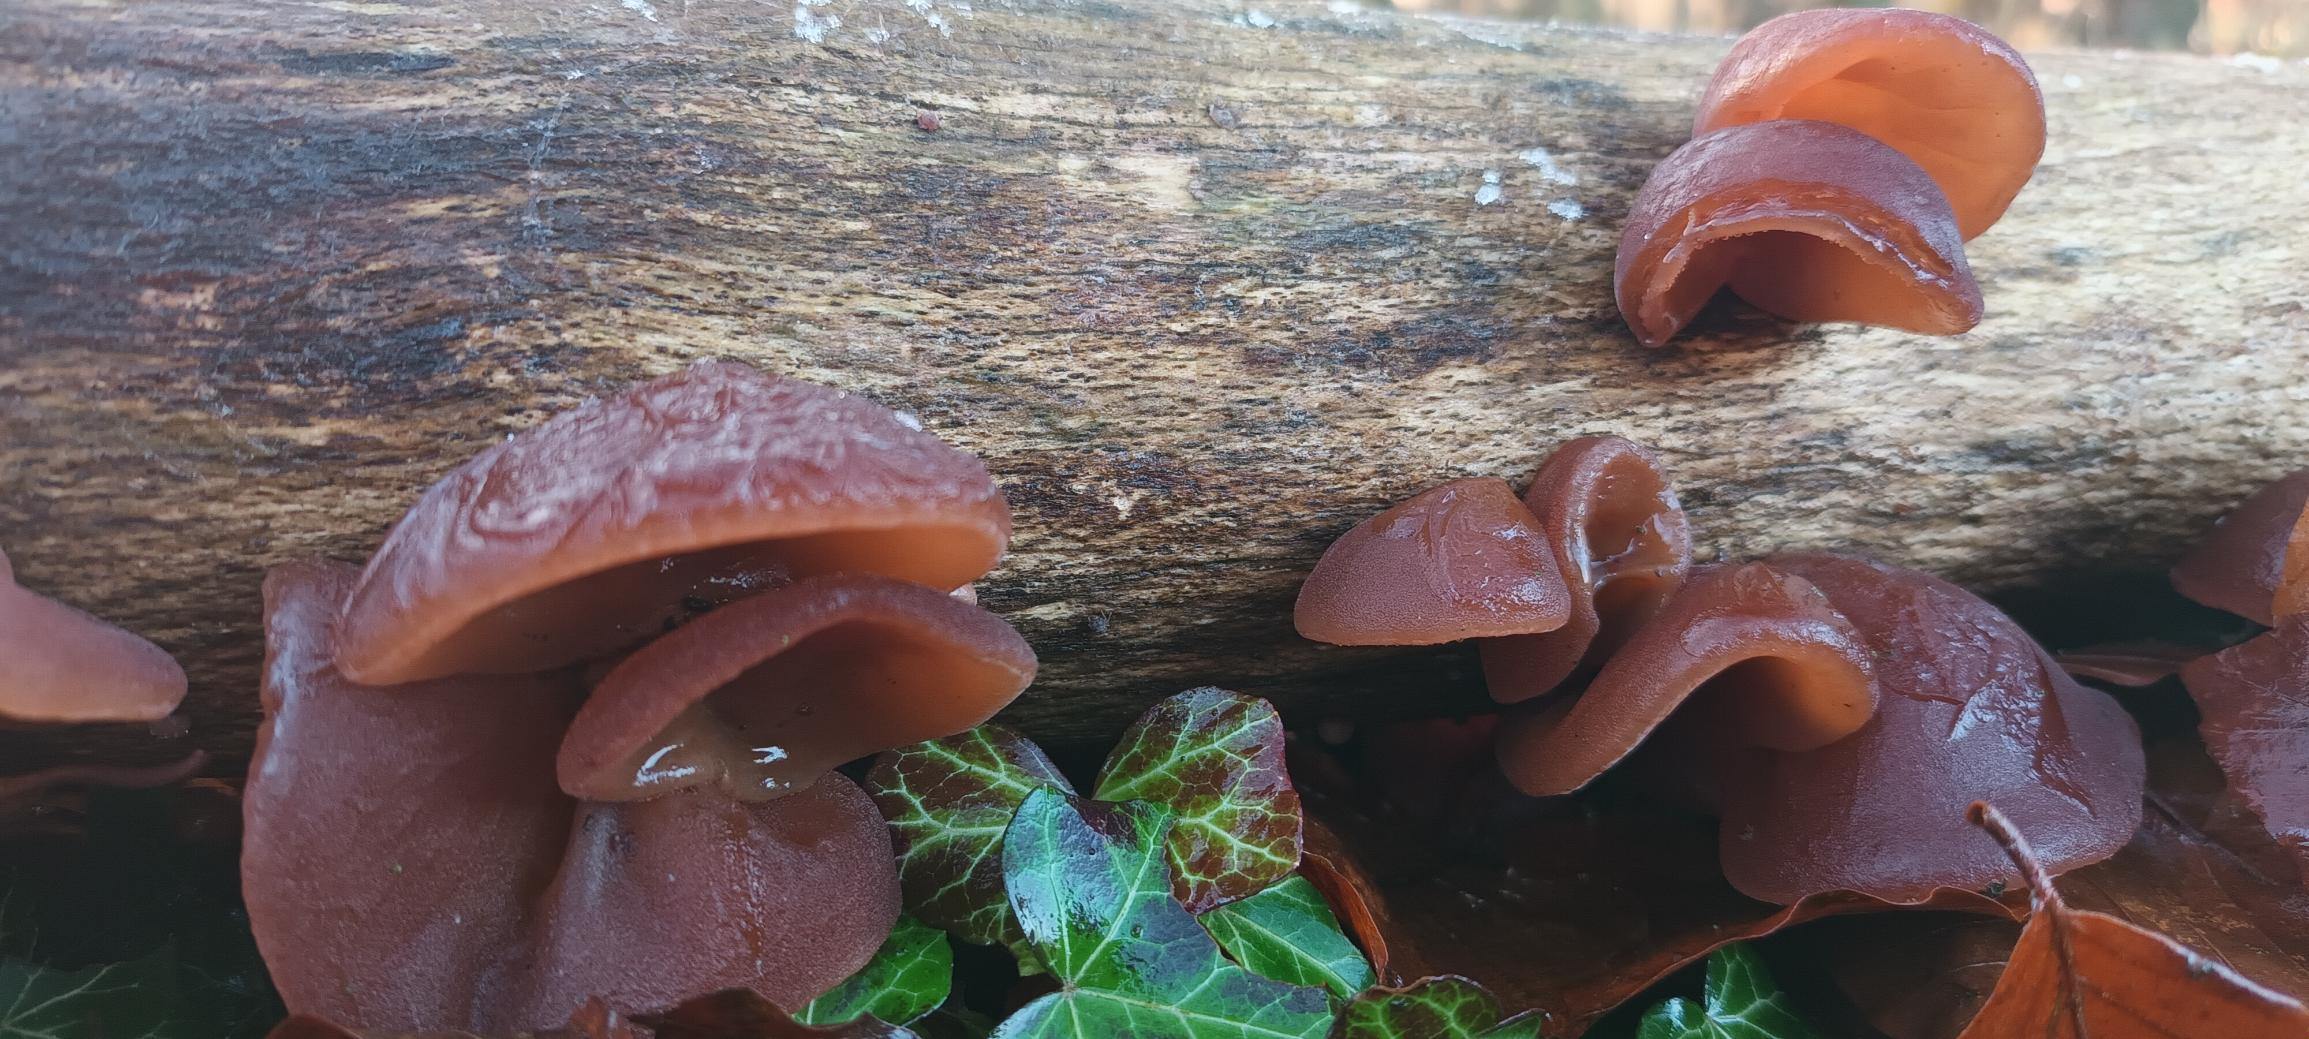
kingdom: Fungi
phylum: Basidiomycota
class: Agaricomycetes
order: Auriculariales
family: Auriculariaceae
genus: Auricularia
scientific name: Auricularia auricula-judae
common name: Almindelig judasøre
